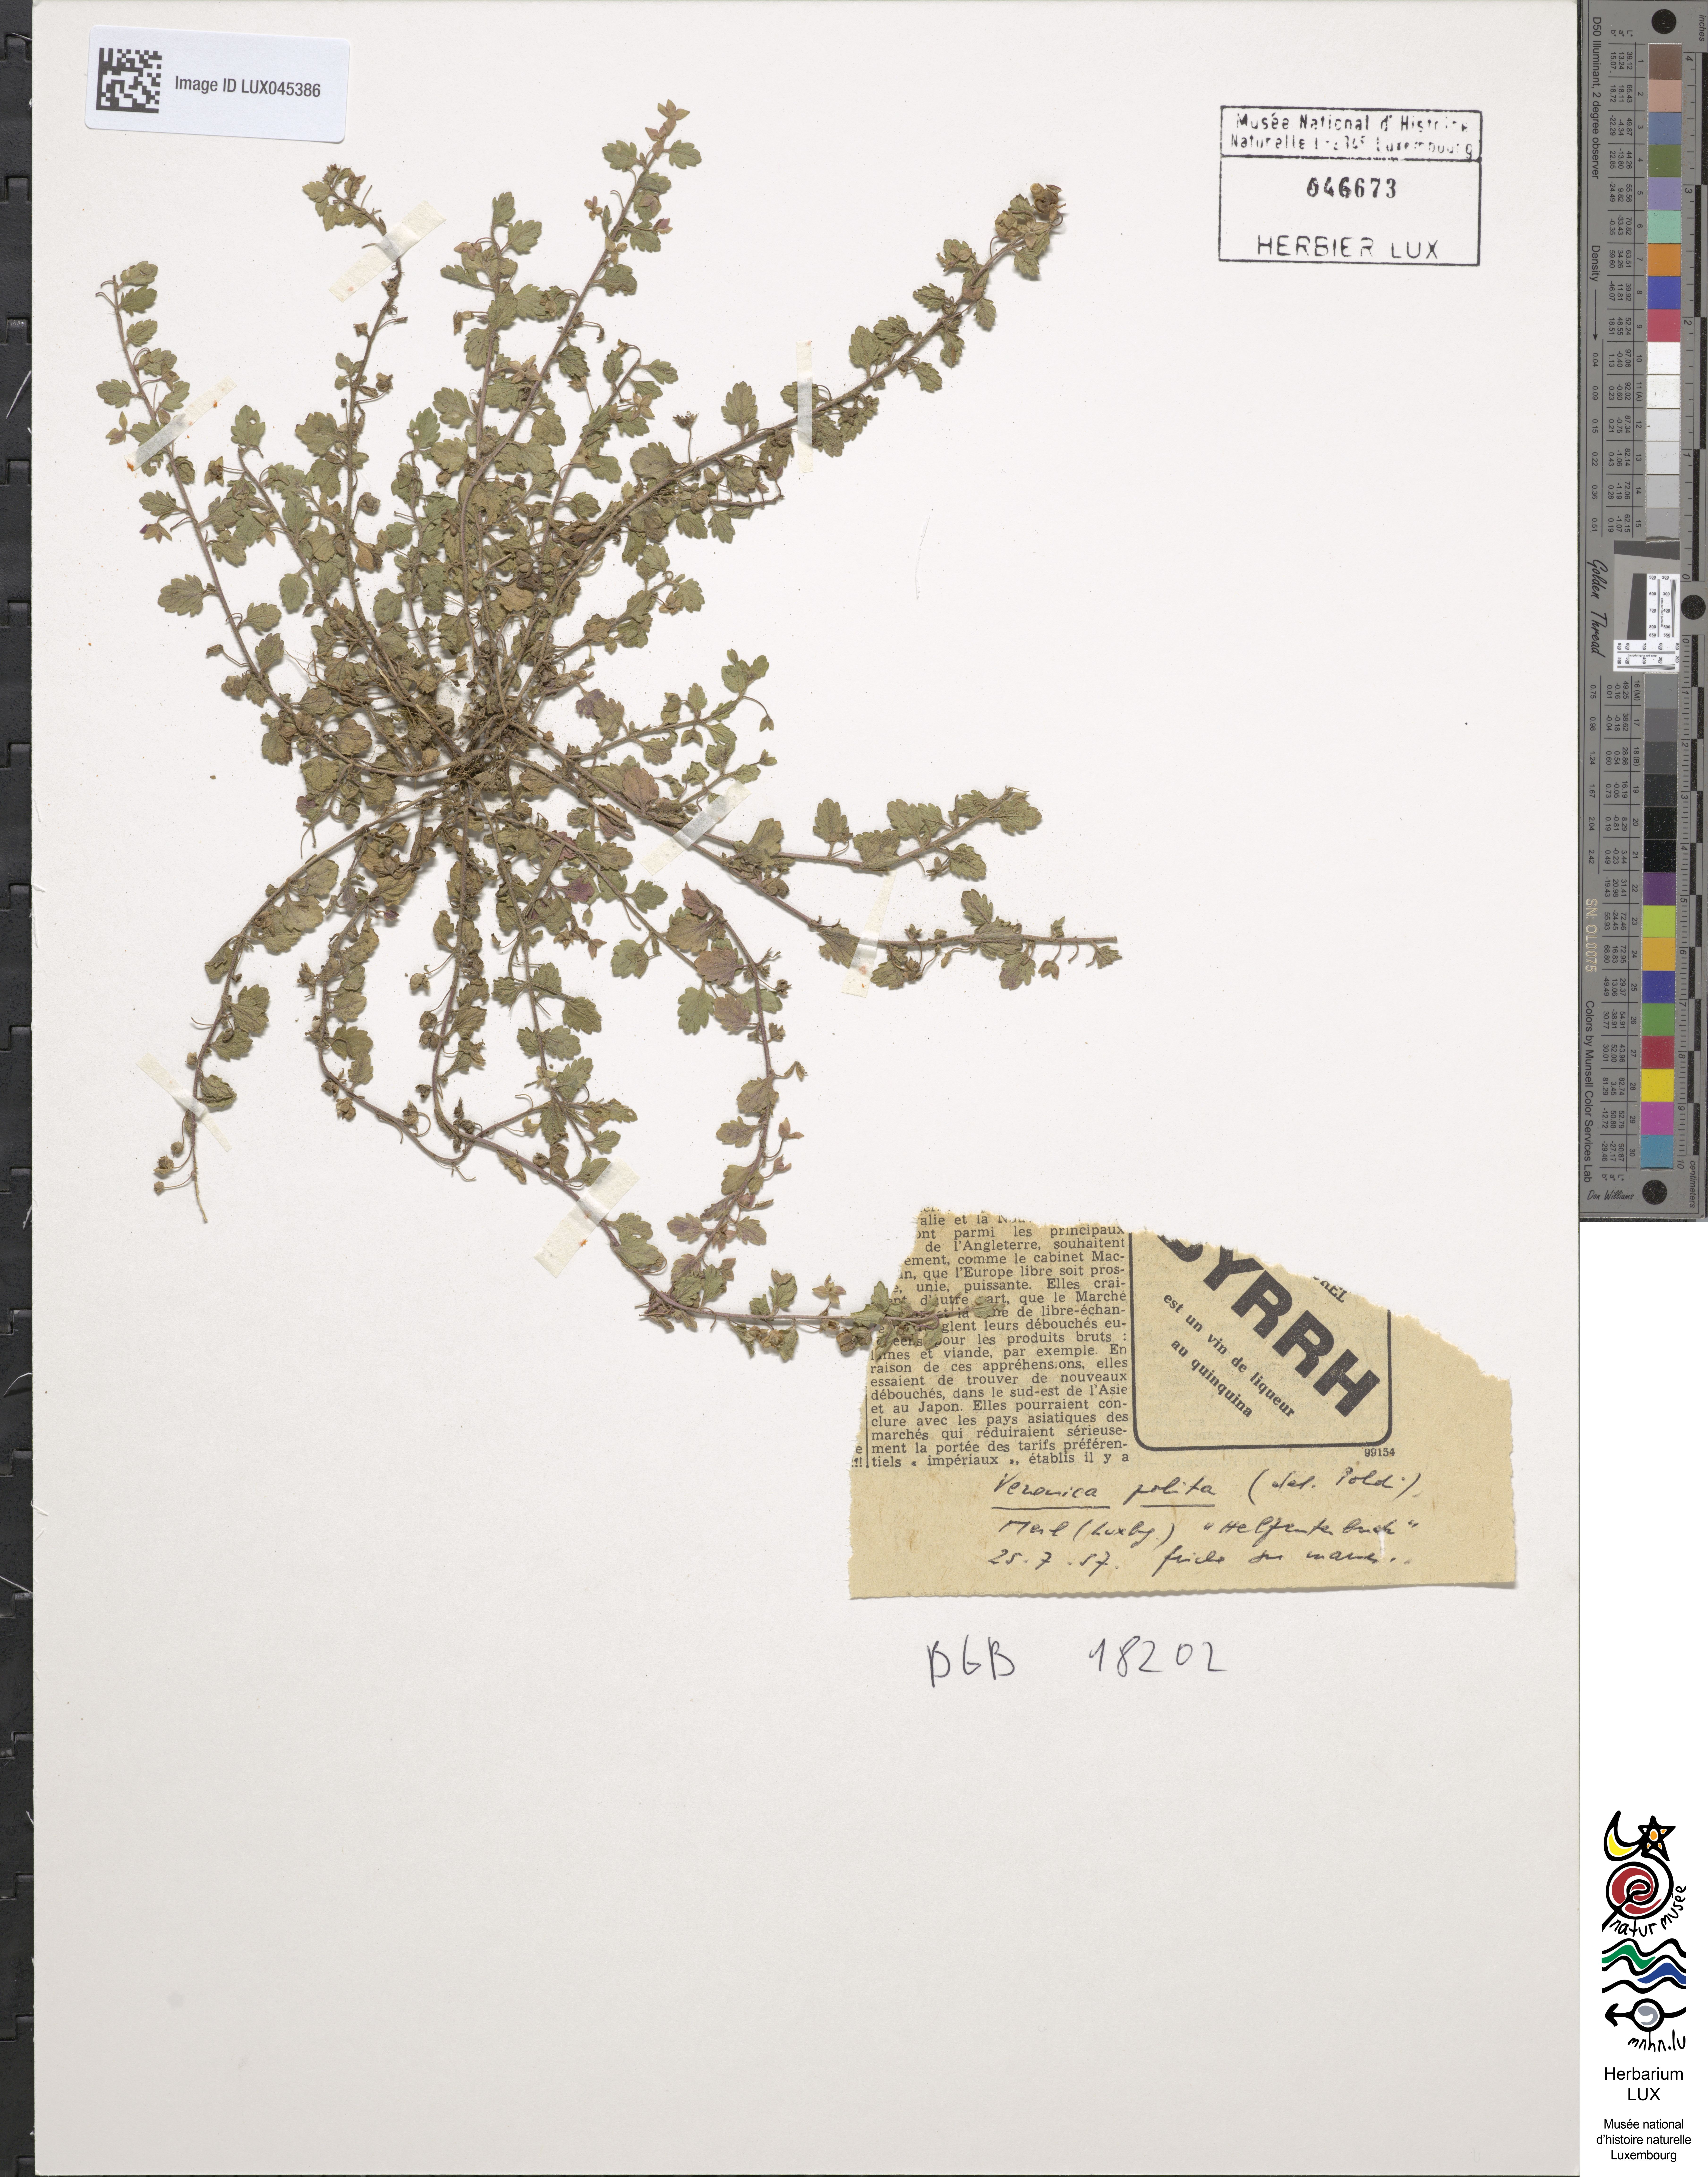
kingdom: Plantae
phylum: Tracheophyta
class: Magnoliopsida
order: Lamiales
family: Plantaginaceae
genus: Veronica
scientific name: Veronica polita
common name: Grey field-speedwell
